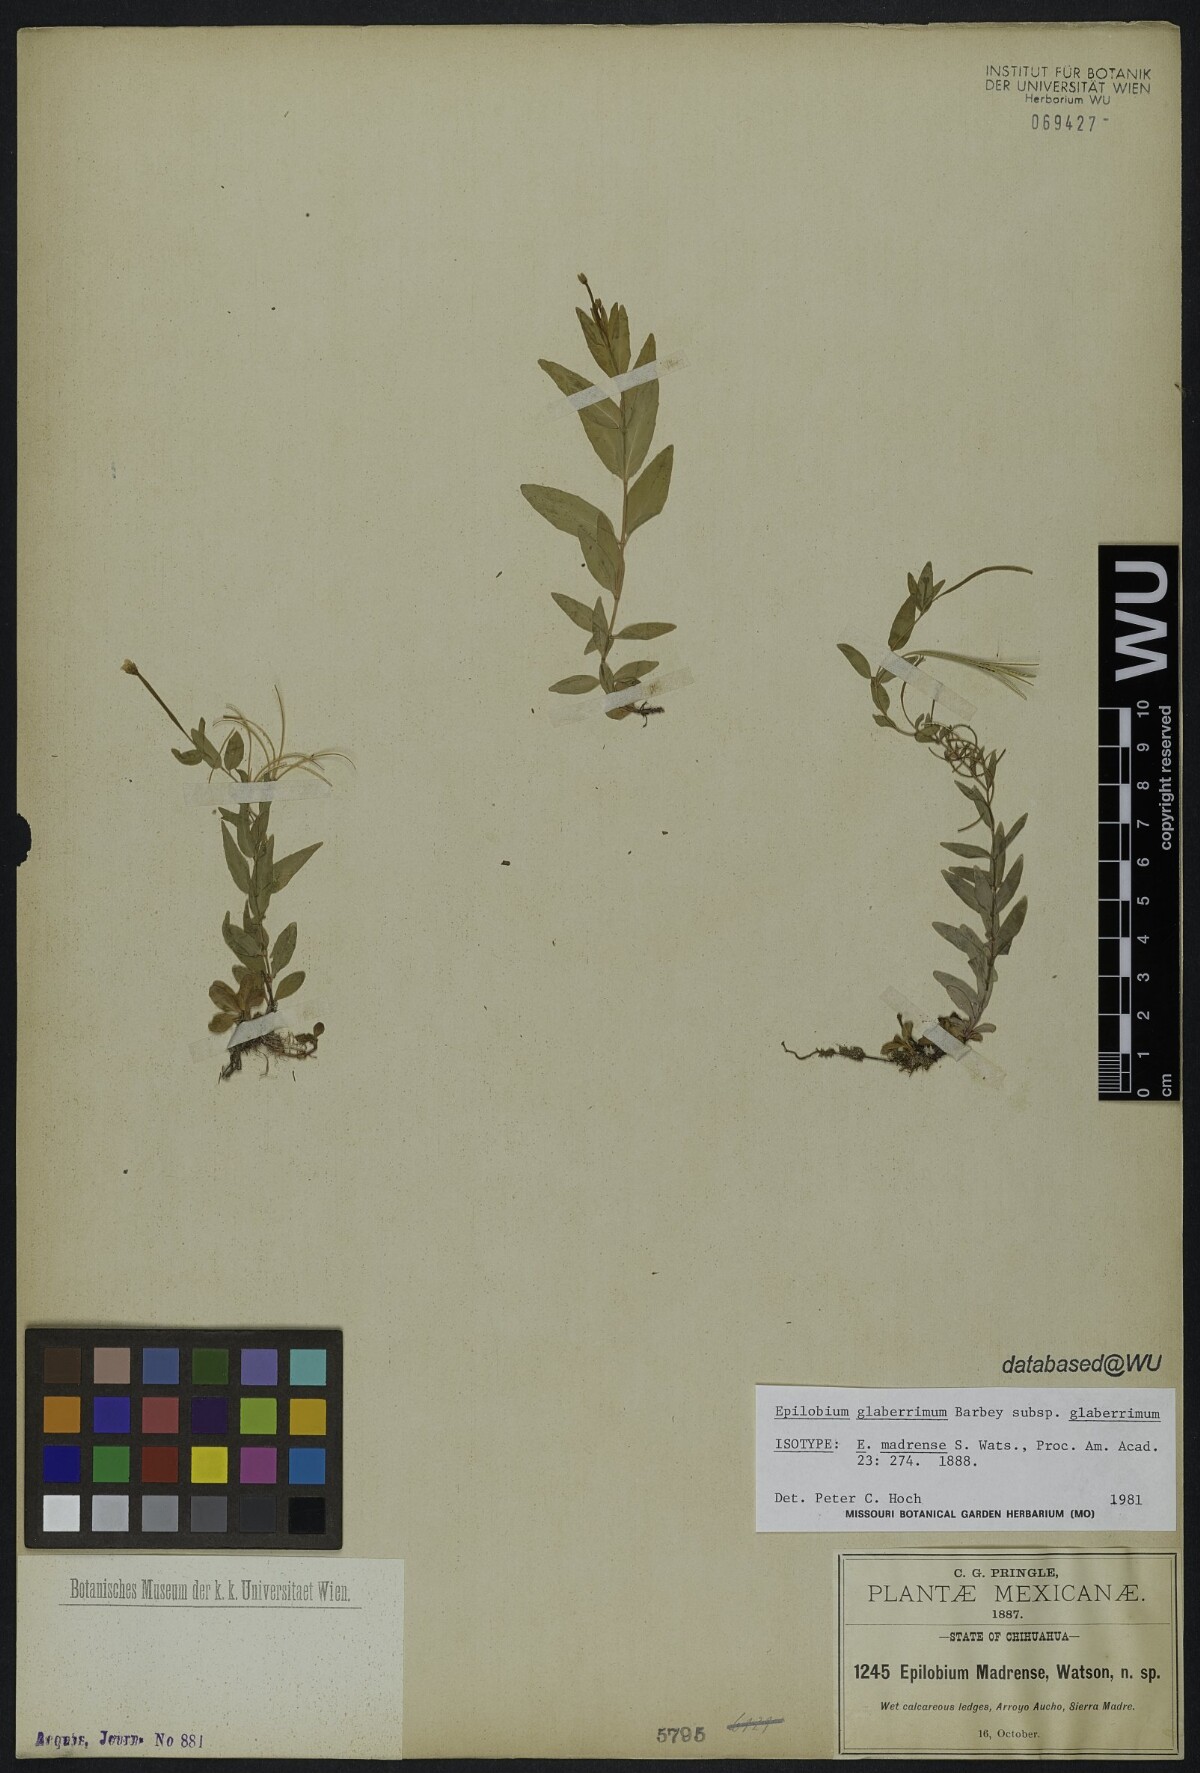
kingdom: Plantae
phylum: Tracheophyta
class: Magnoliopsida
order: Myrtales
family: Onagraceae
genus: Epilobium
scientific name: Epilobium glaberrimum
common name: Glaucous willowherb
